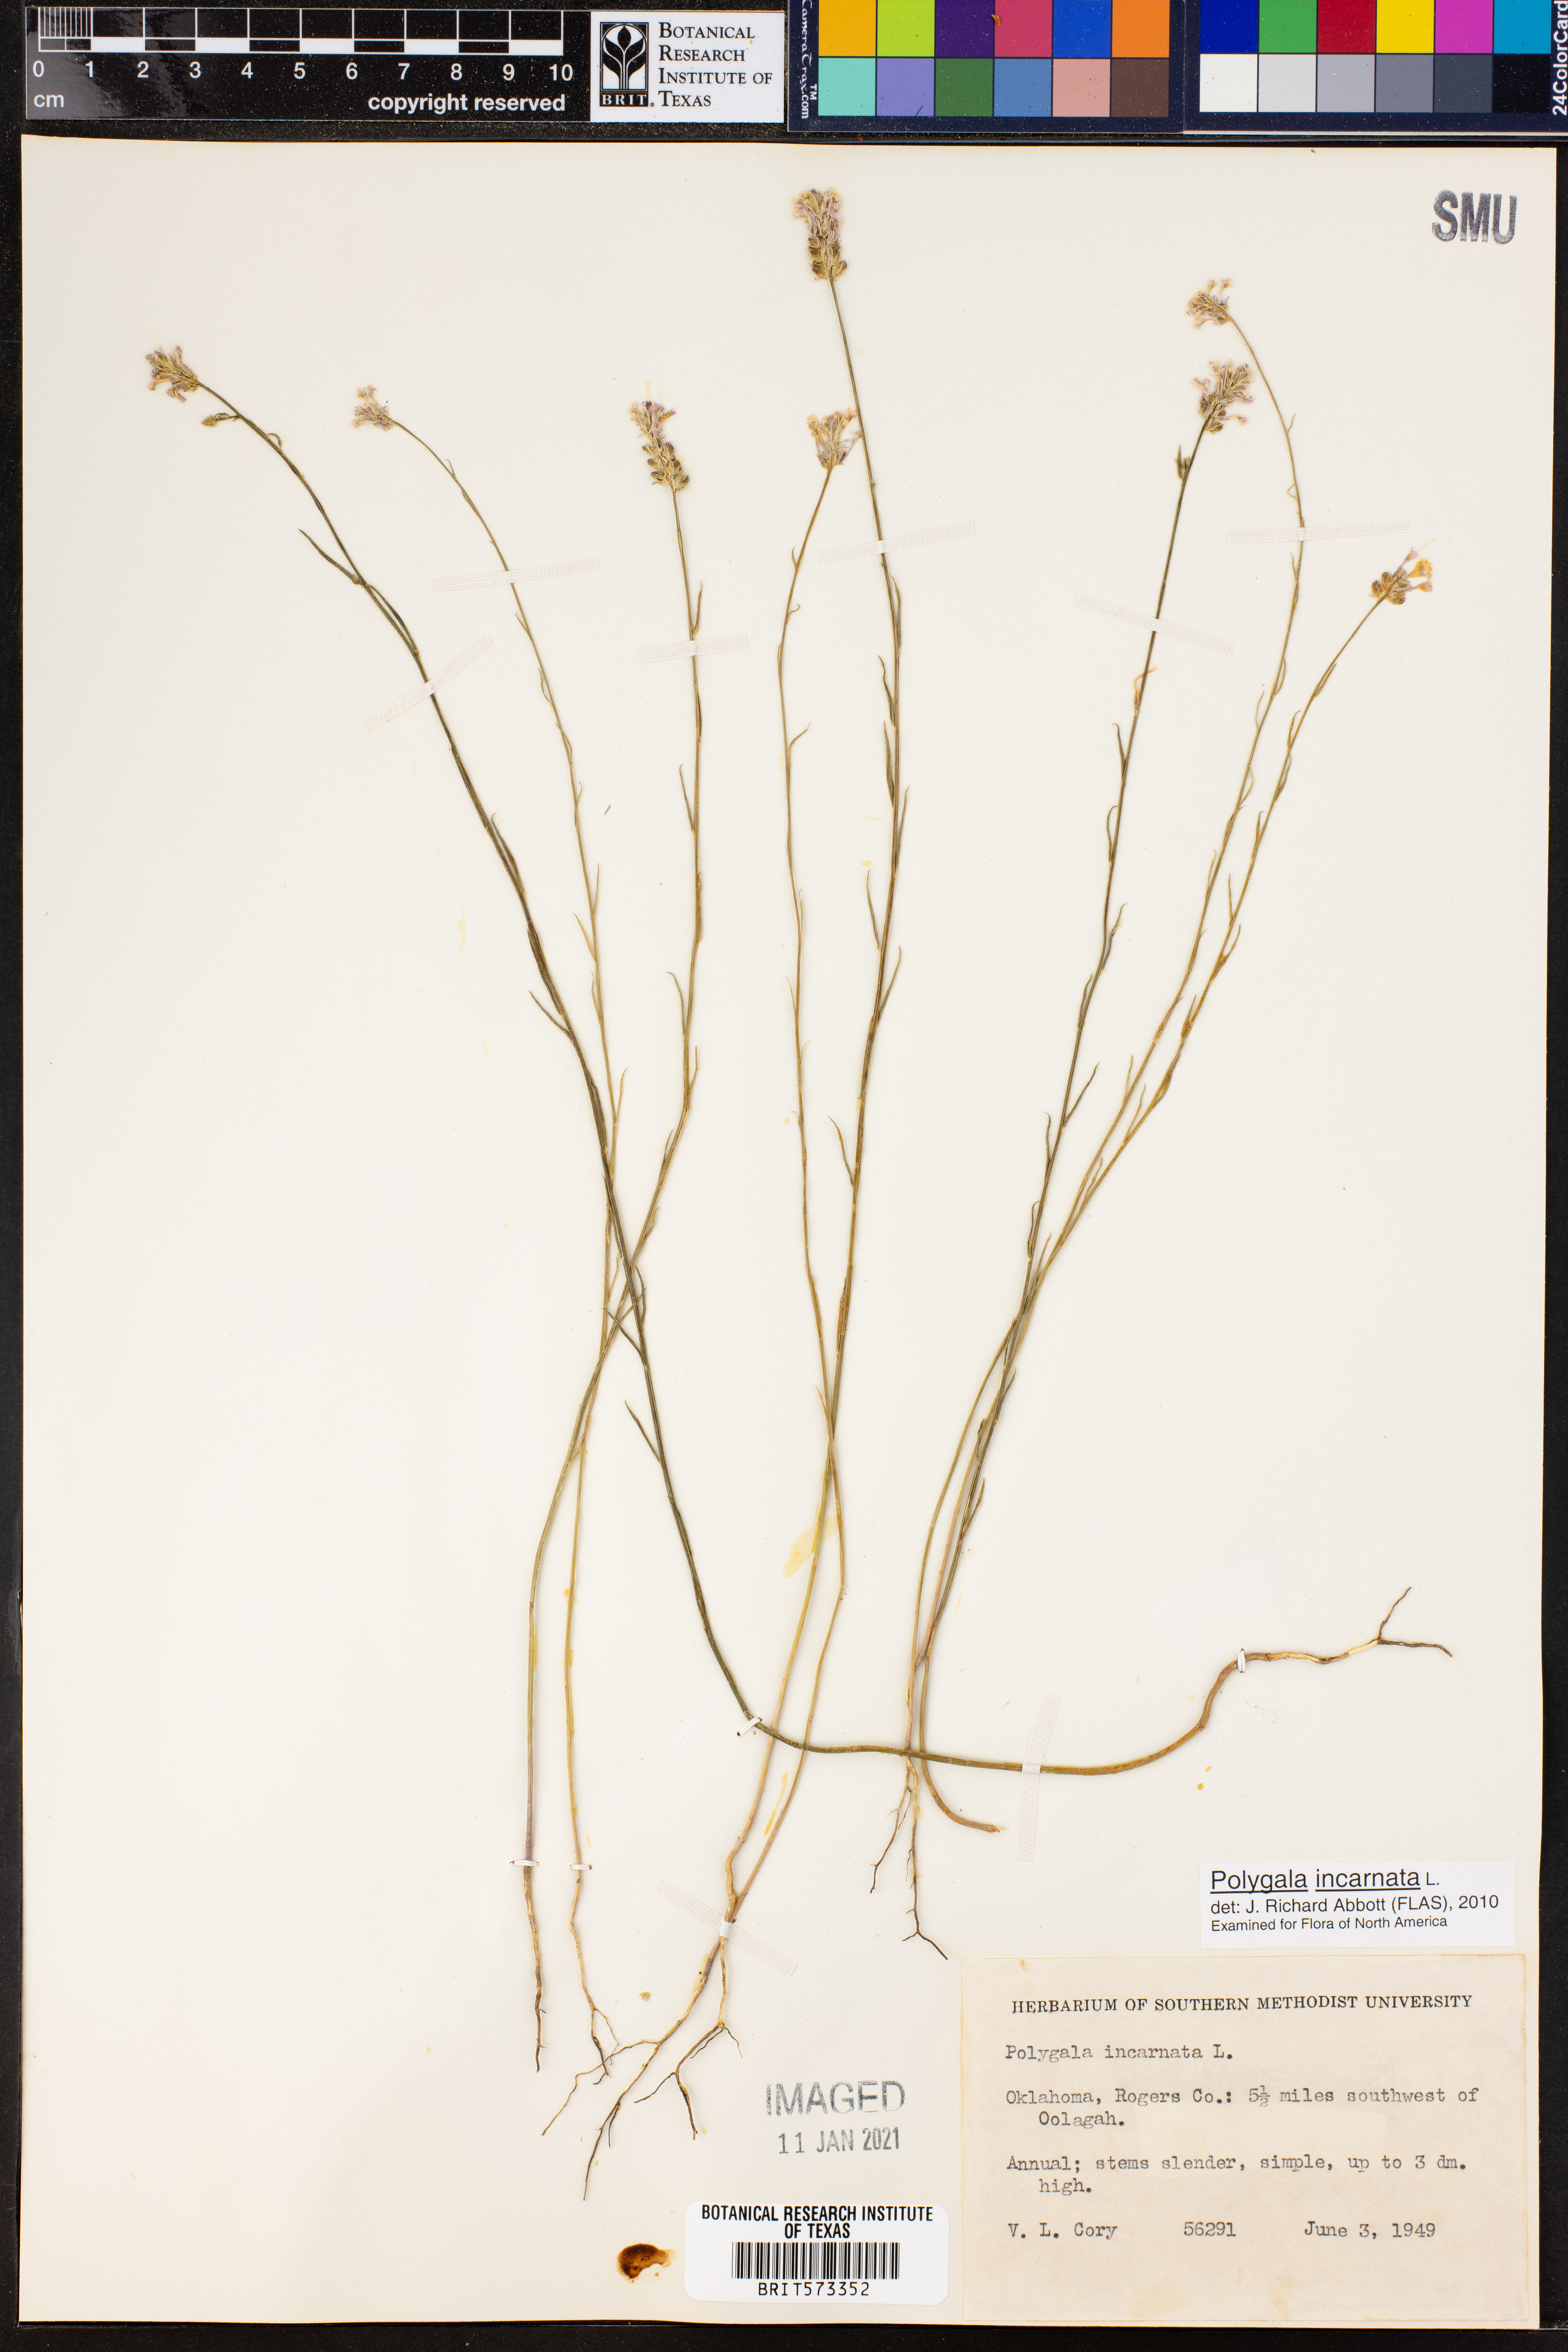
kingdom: Plantae
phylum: Tracheophyta
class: Magnoliopsida
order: Fabales
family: Polygalaceae
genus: Polygala
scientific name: Polygala incarnata
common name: Pink milkwort
